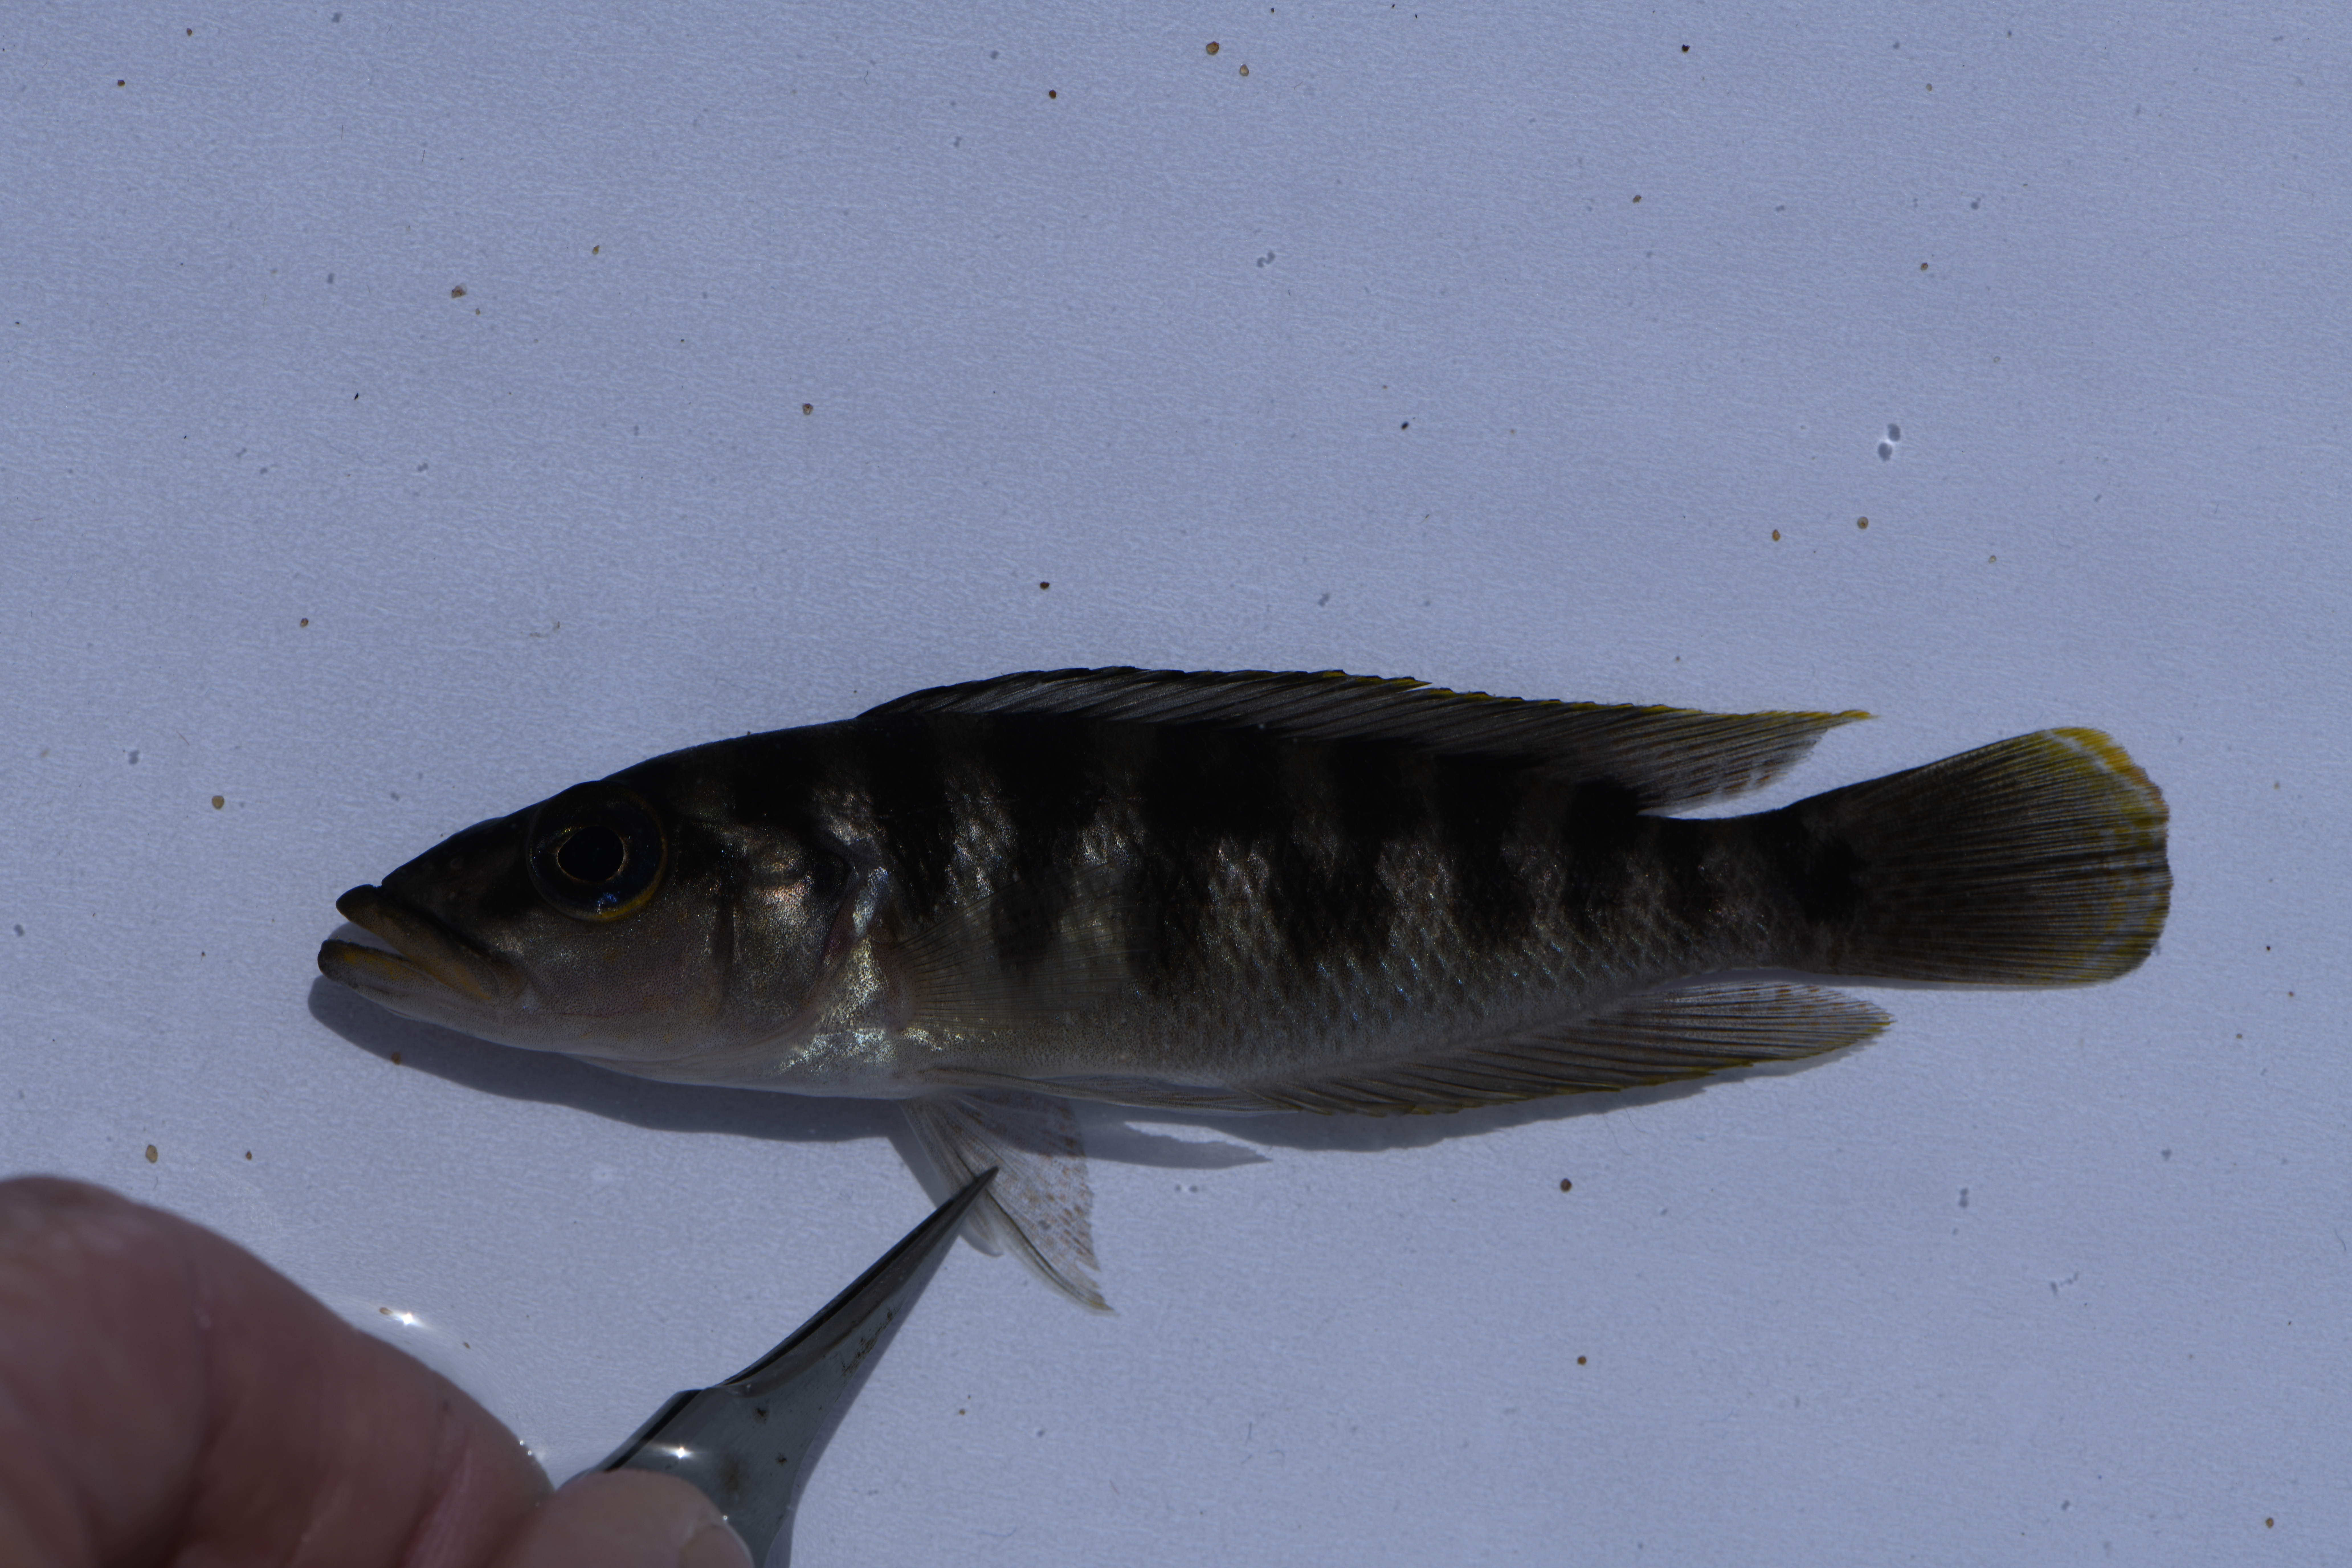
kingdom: Animalia
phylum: Chordata
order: Perciformes
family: Cichlidae
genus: Neolamprologus
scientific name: Neolamprologus fasciatus
